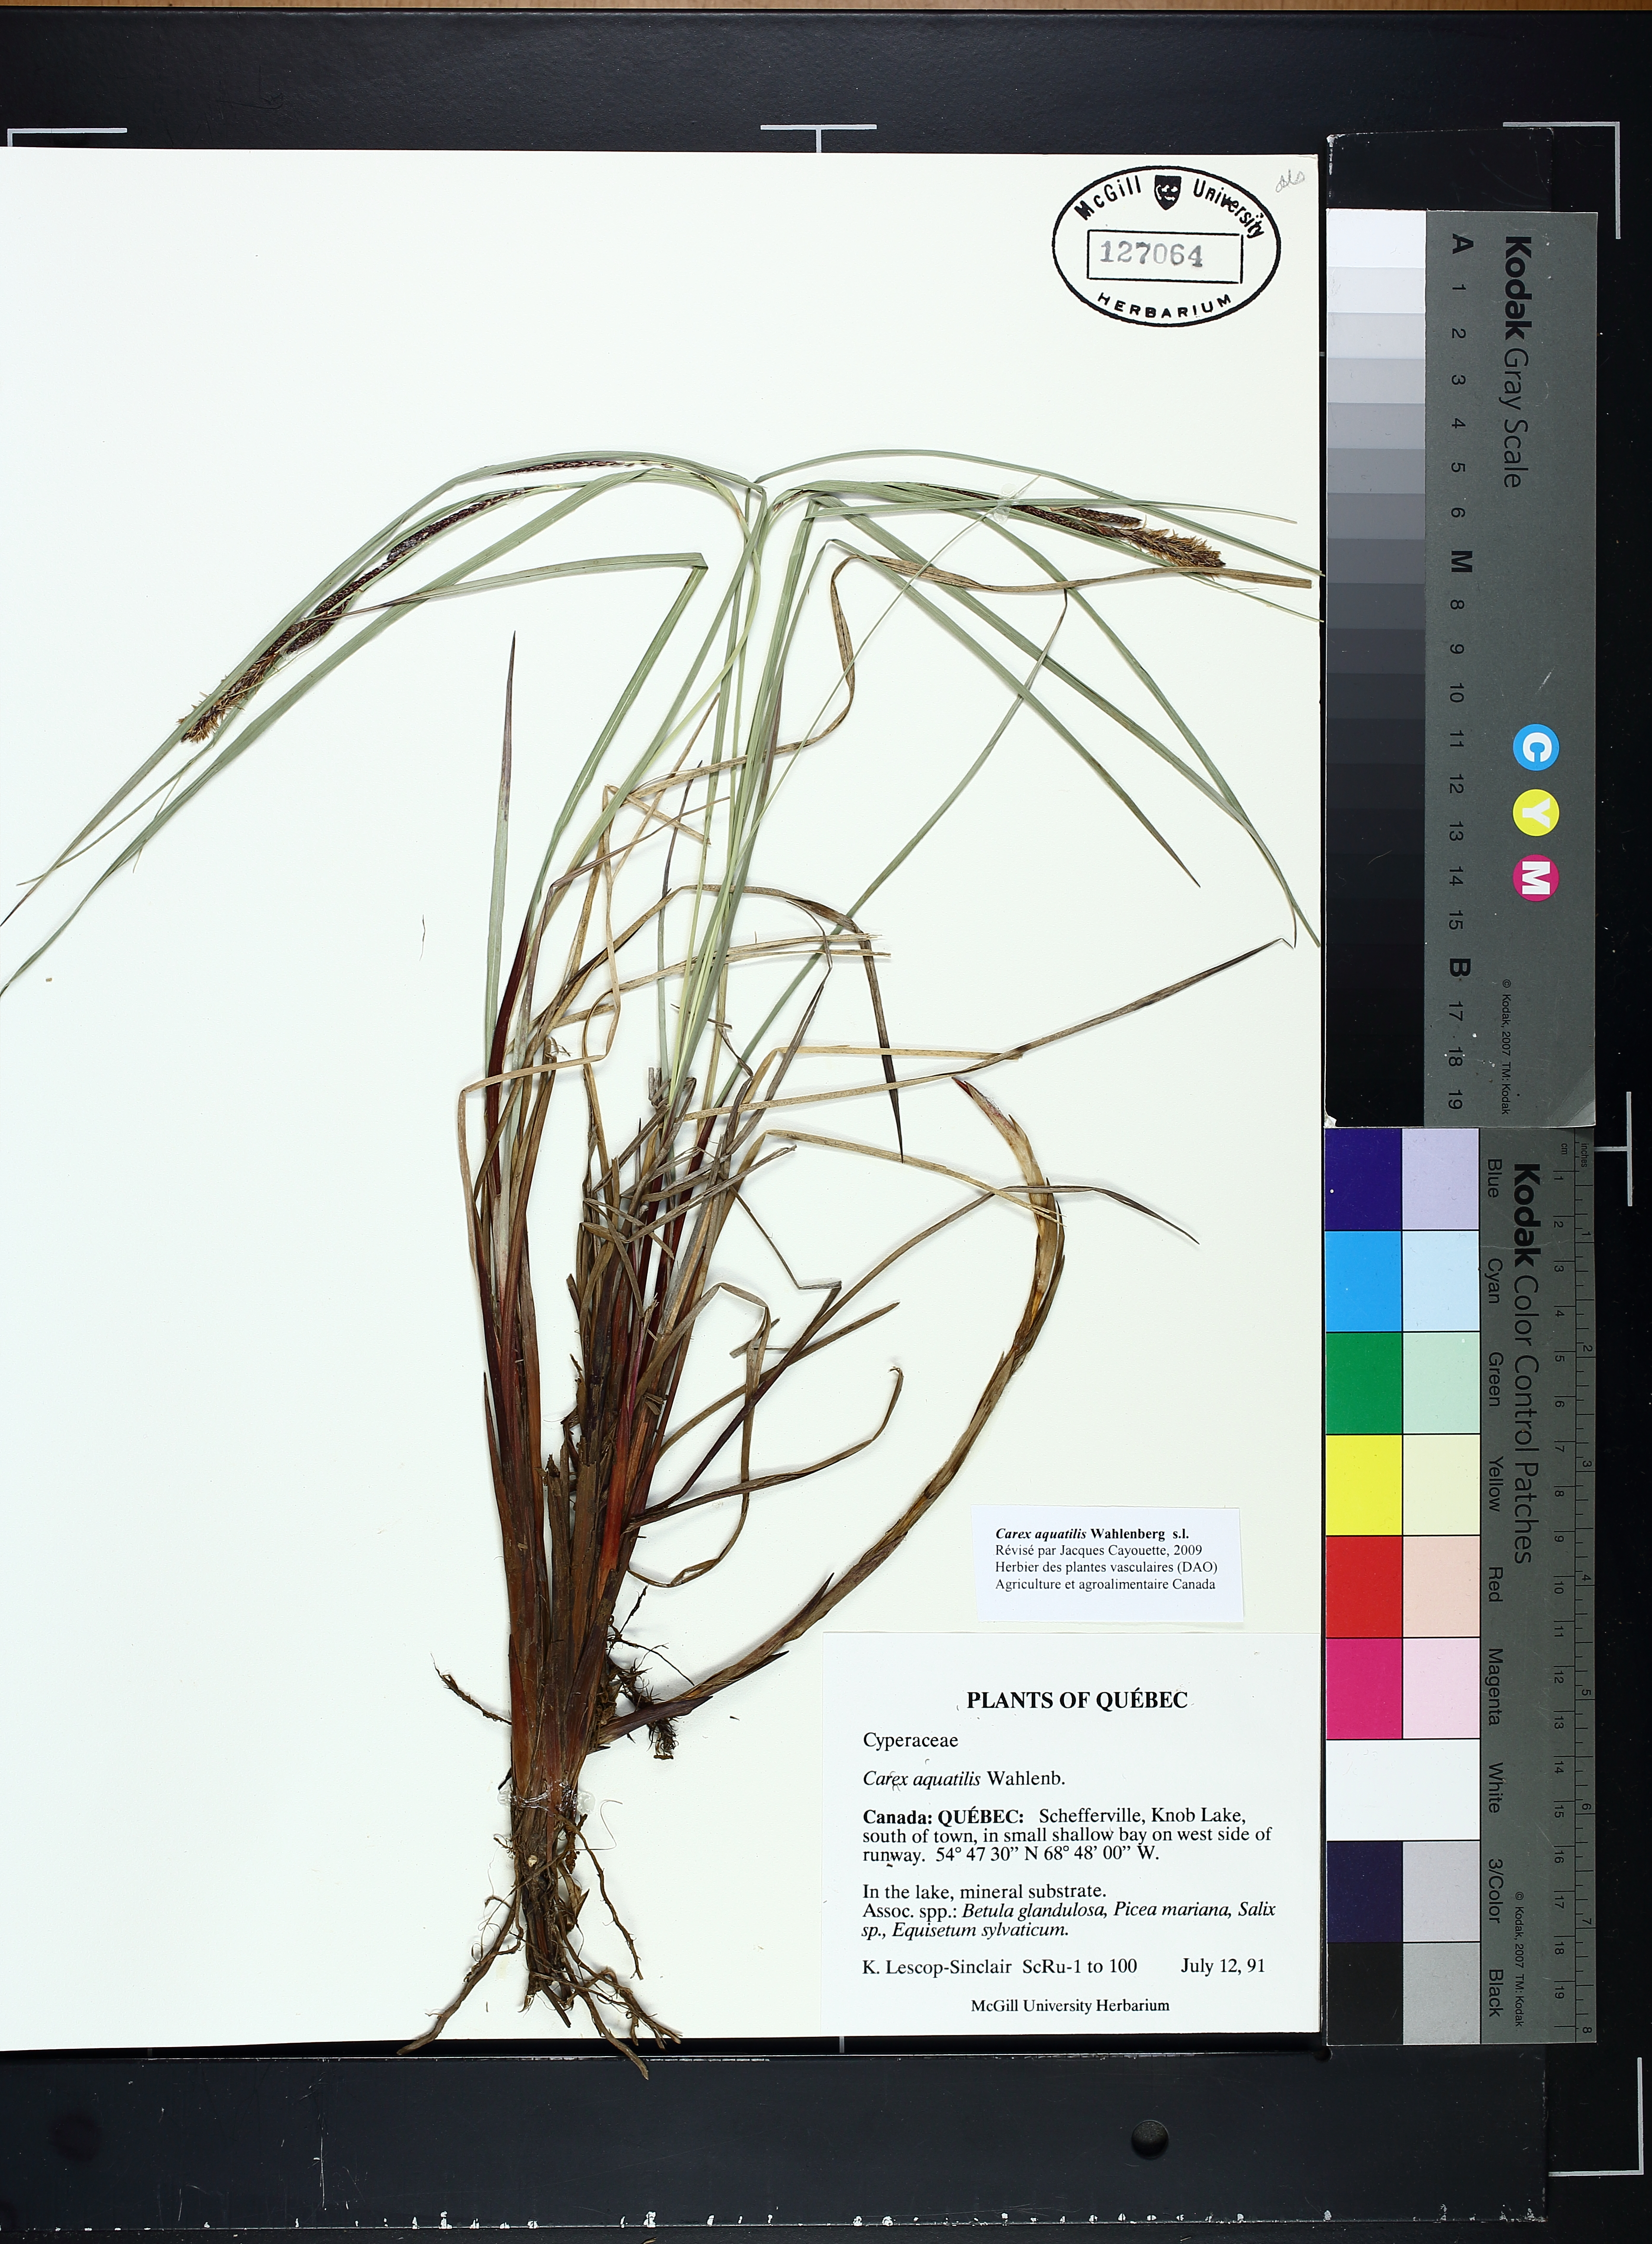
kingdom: Plantae
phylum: Tracheophyta
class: Liliopsida
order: Poales
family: Cyperaceae
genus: Carex
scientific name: Carex aquatilis
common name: Water sedge
